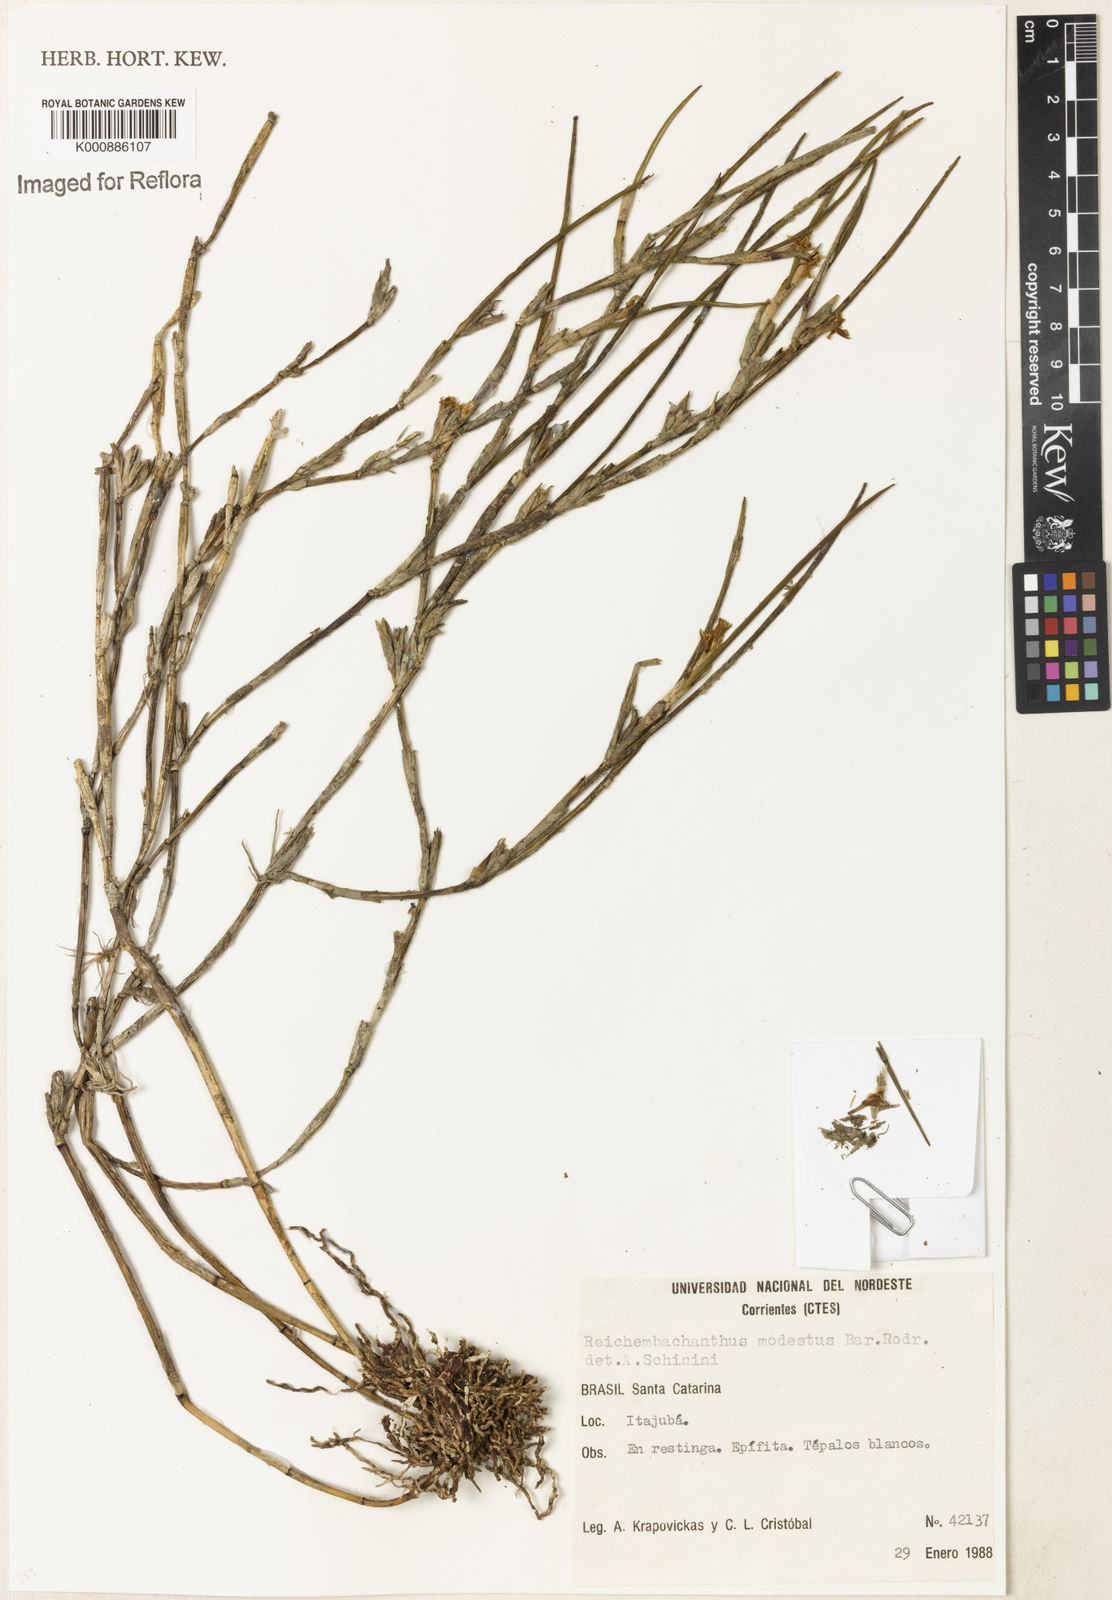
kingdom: Plantae
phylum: Tracheophyta
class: Liliopsida
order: Asparagales
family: Orchidaceae
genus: Scaphyglottis
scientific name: Scaphyglottis brasiliensis
